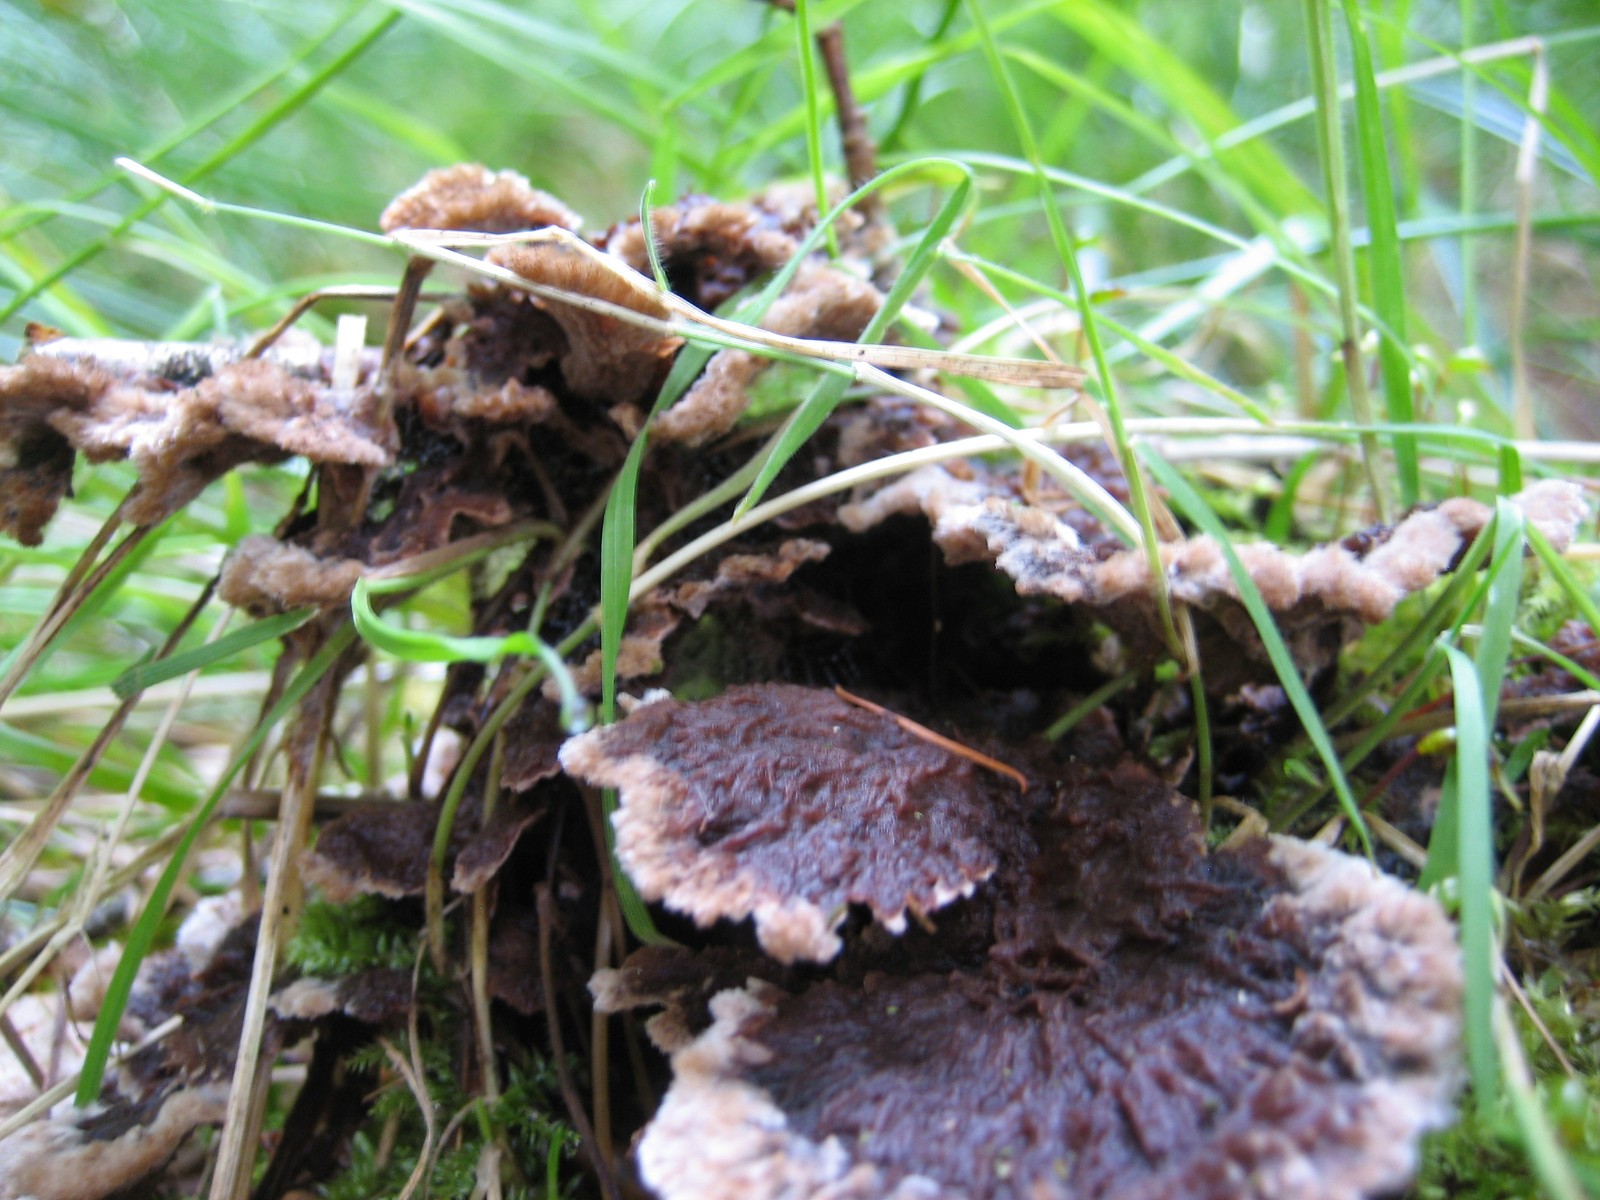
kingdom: Fungi
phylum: Basidiomycota
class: Agaricomycetes
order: Thelephorales
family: Thelephoraceae
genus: Thelephora
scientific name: Thelephora terrestris
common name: fliget frynsesvamp
